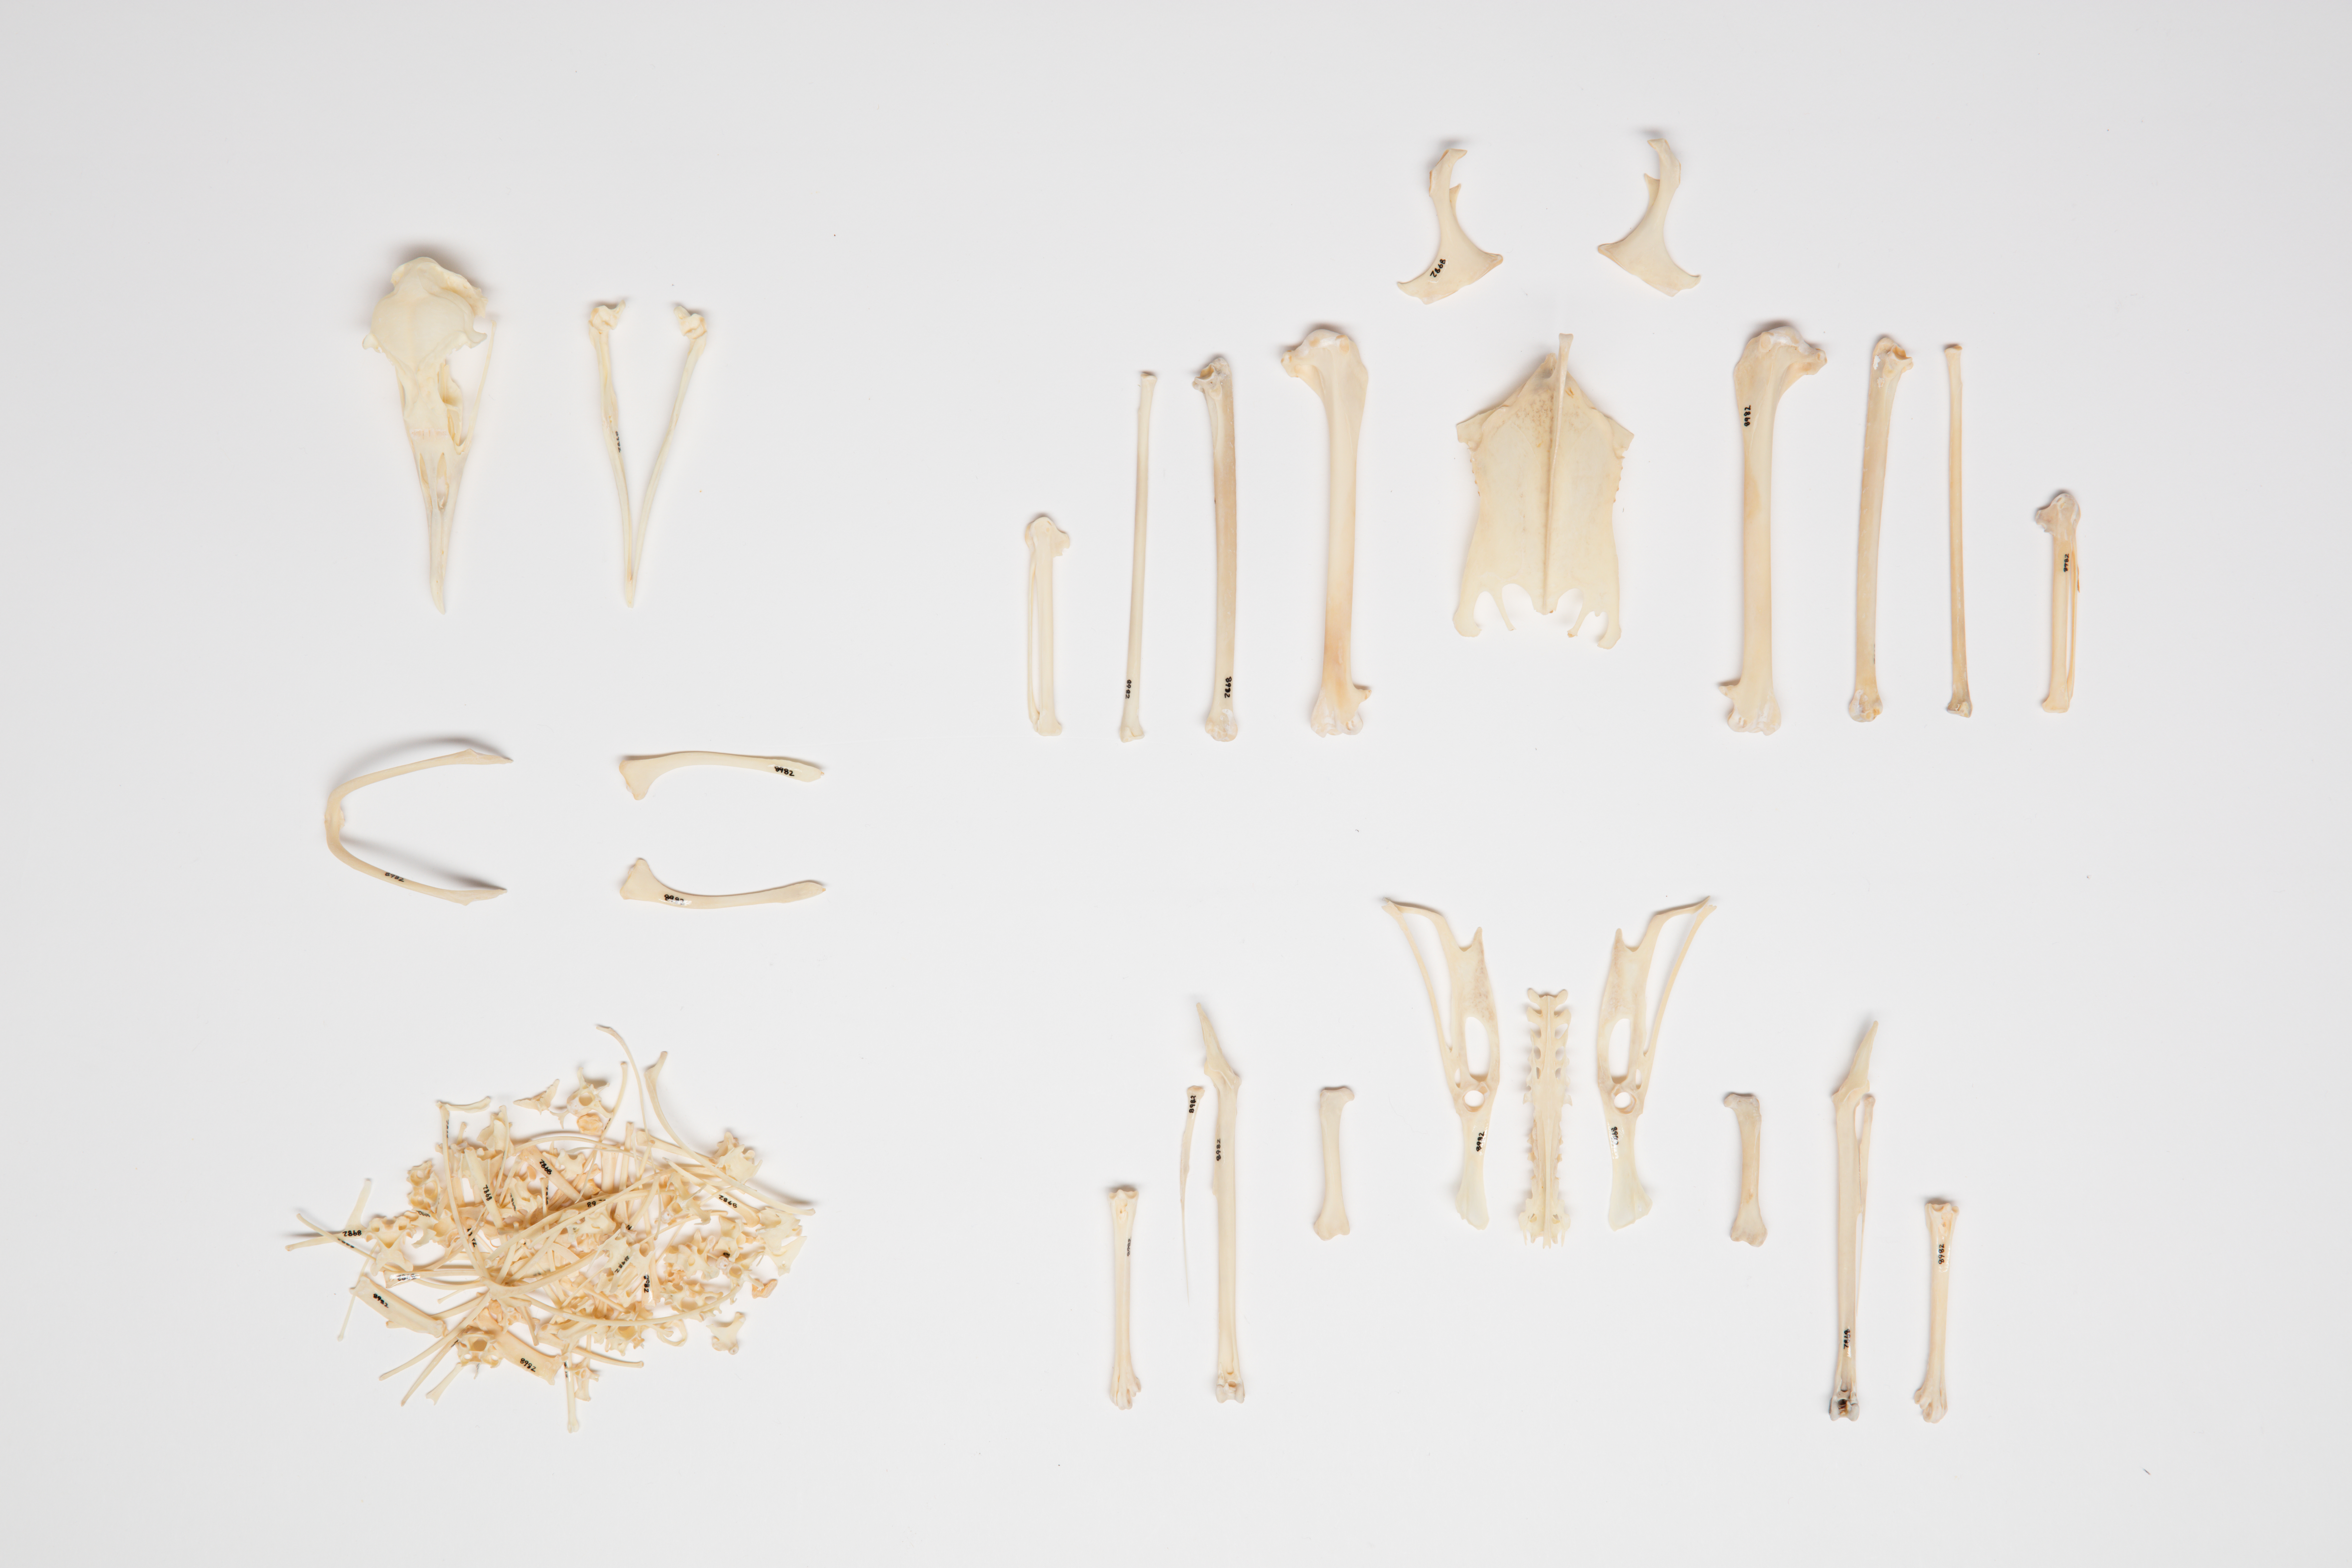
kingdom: Animalia
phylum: Chordata
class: Aves
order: Procellariiformes
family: Procellariidae
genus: Puffinus
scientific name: Puffinus creatopus
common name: Pink-footed shearwater
